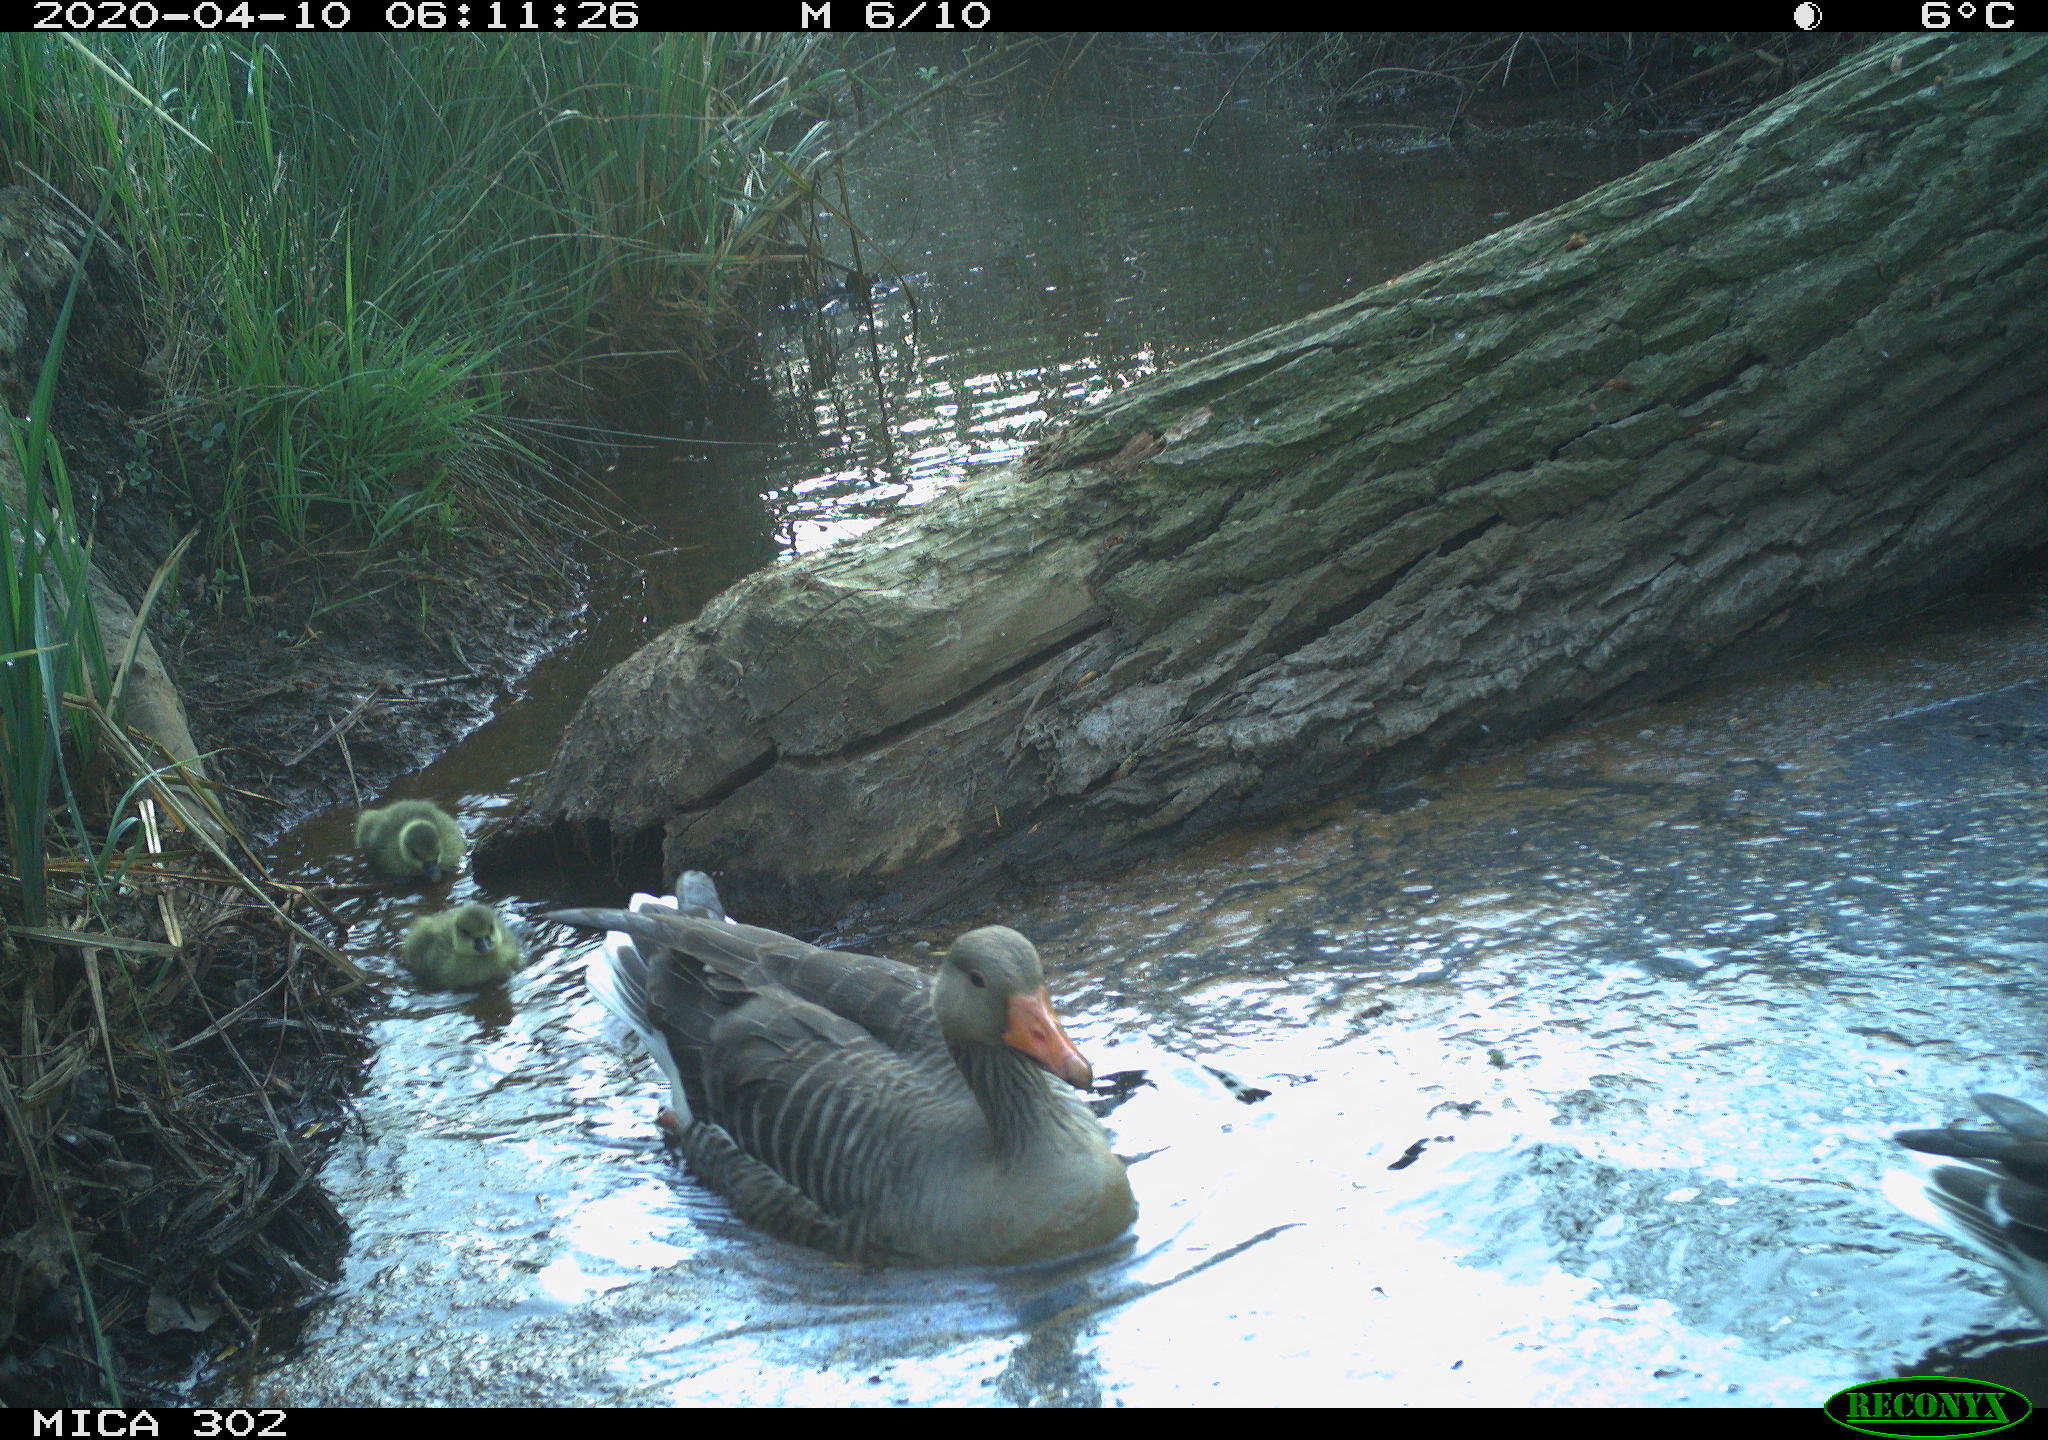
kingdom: Animalia
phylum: Chordata
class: Aves
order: Anseriformes
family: Anatidae
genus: Anser
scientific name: Anser anser
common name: Greylag goose
